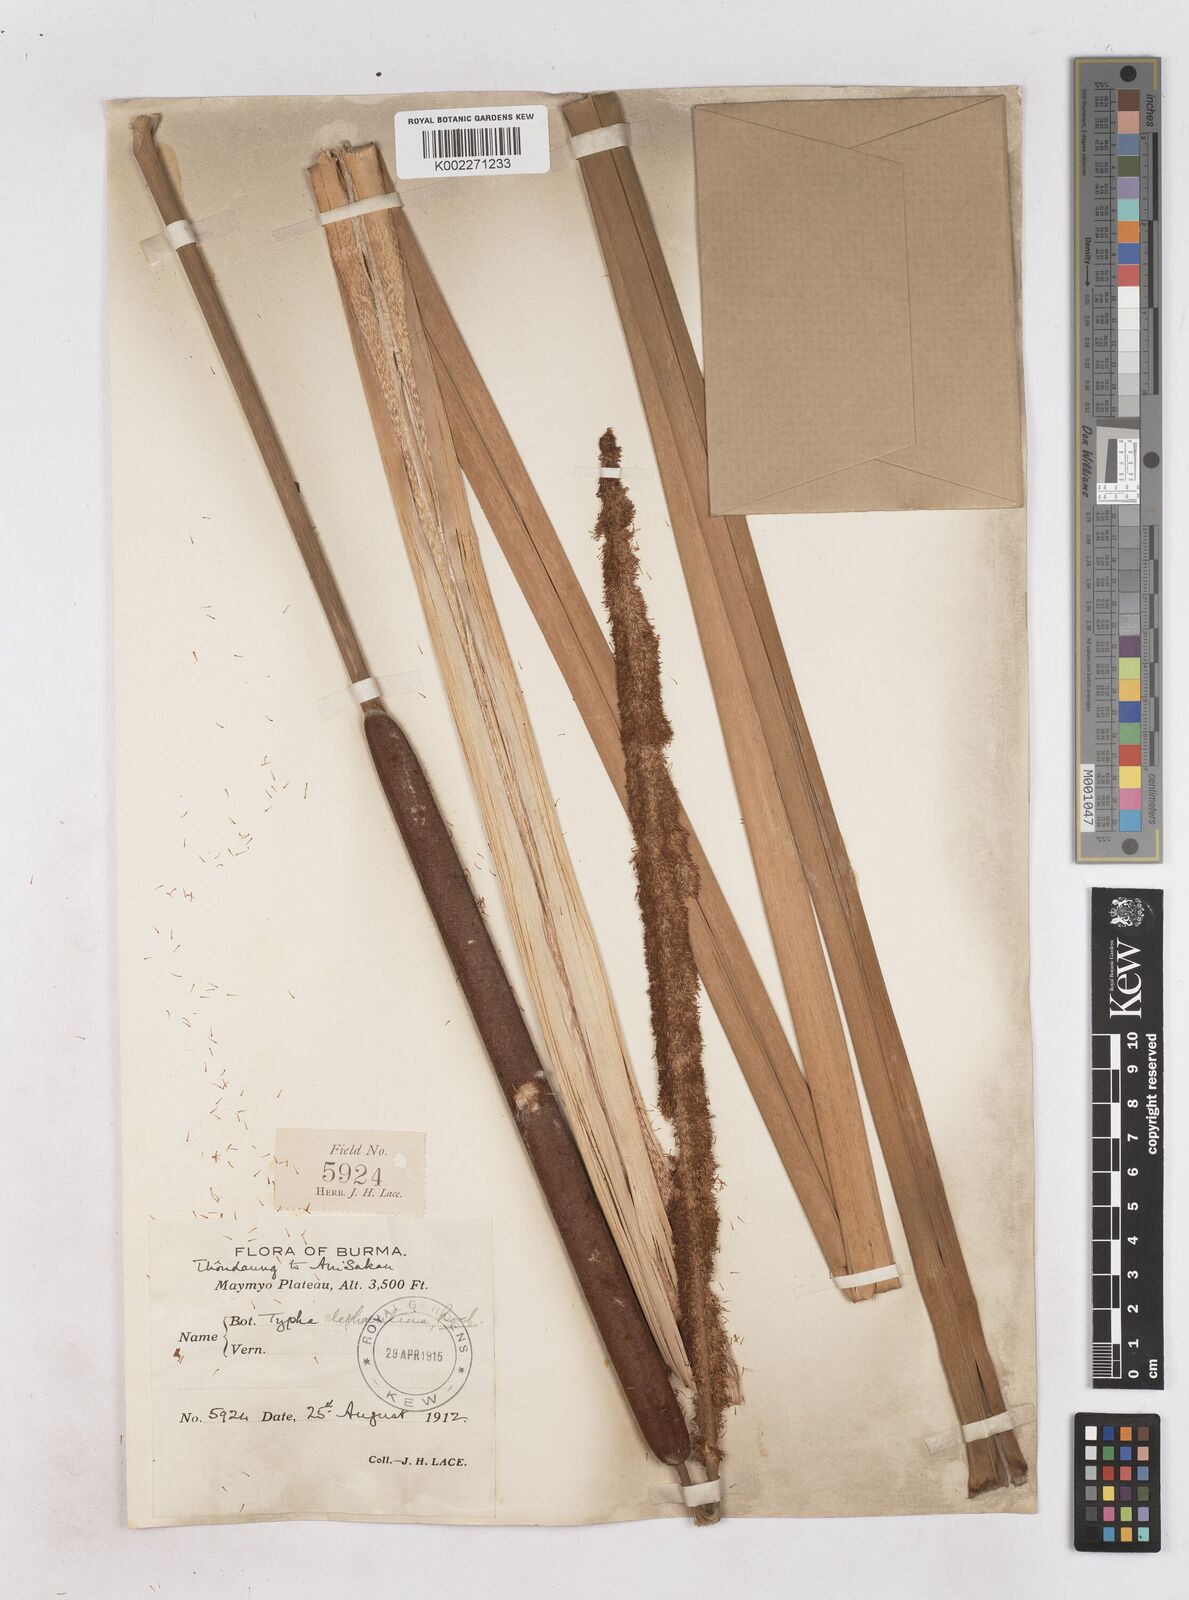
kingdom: Plantae
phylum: Tracheophyta
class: Liliopsida
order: Poales
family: Typhaceae
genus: Typha
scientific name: Typha elephantina
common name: Indian reed-grass
